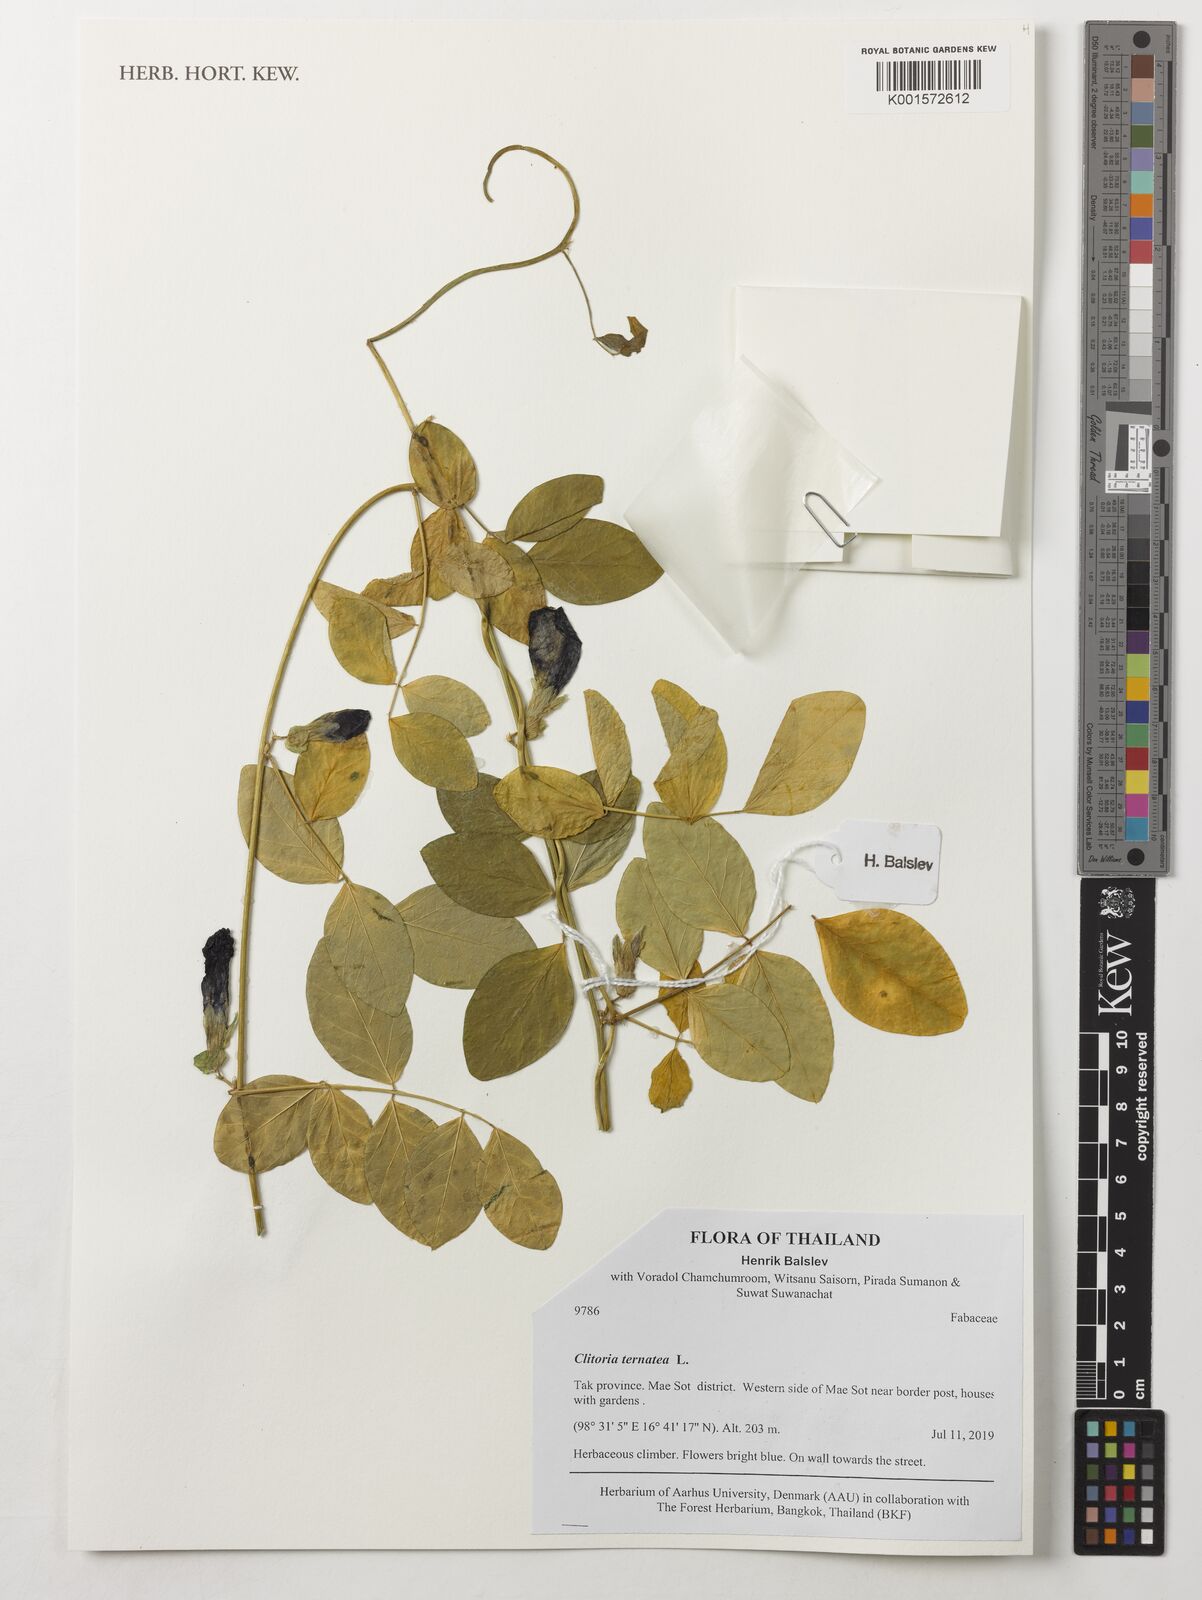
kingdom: Plantae
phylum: Tracheophyta
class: Magnoliopsida
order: Fabales
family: Fabaceae
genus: Clitoria
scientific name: Clitoria ternatea
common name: Asian pigeonwings
